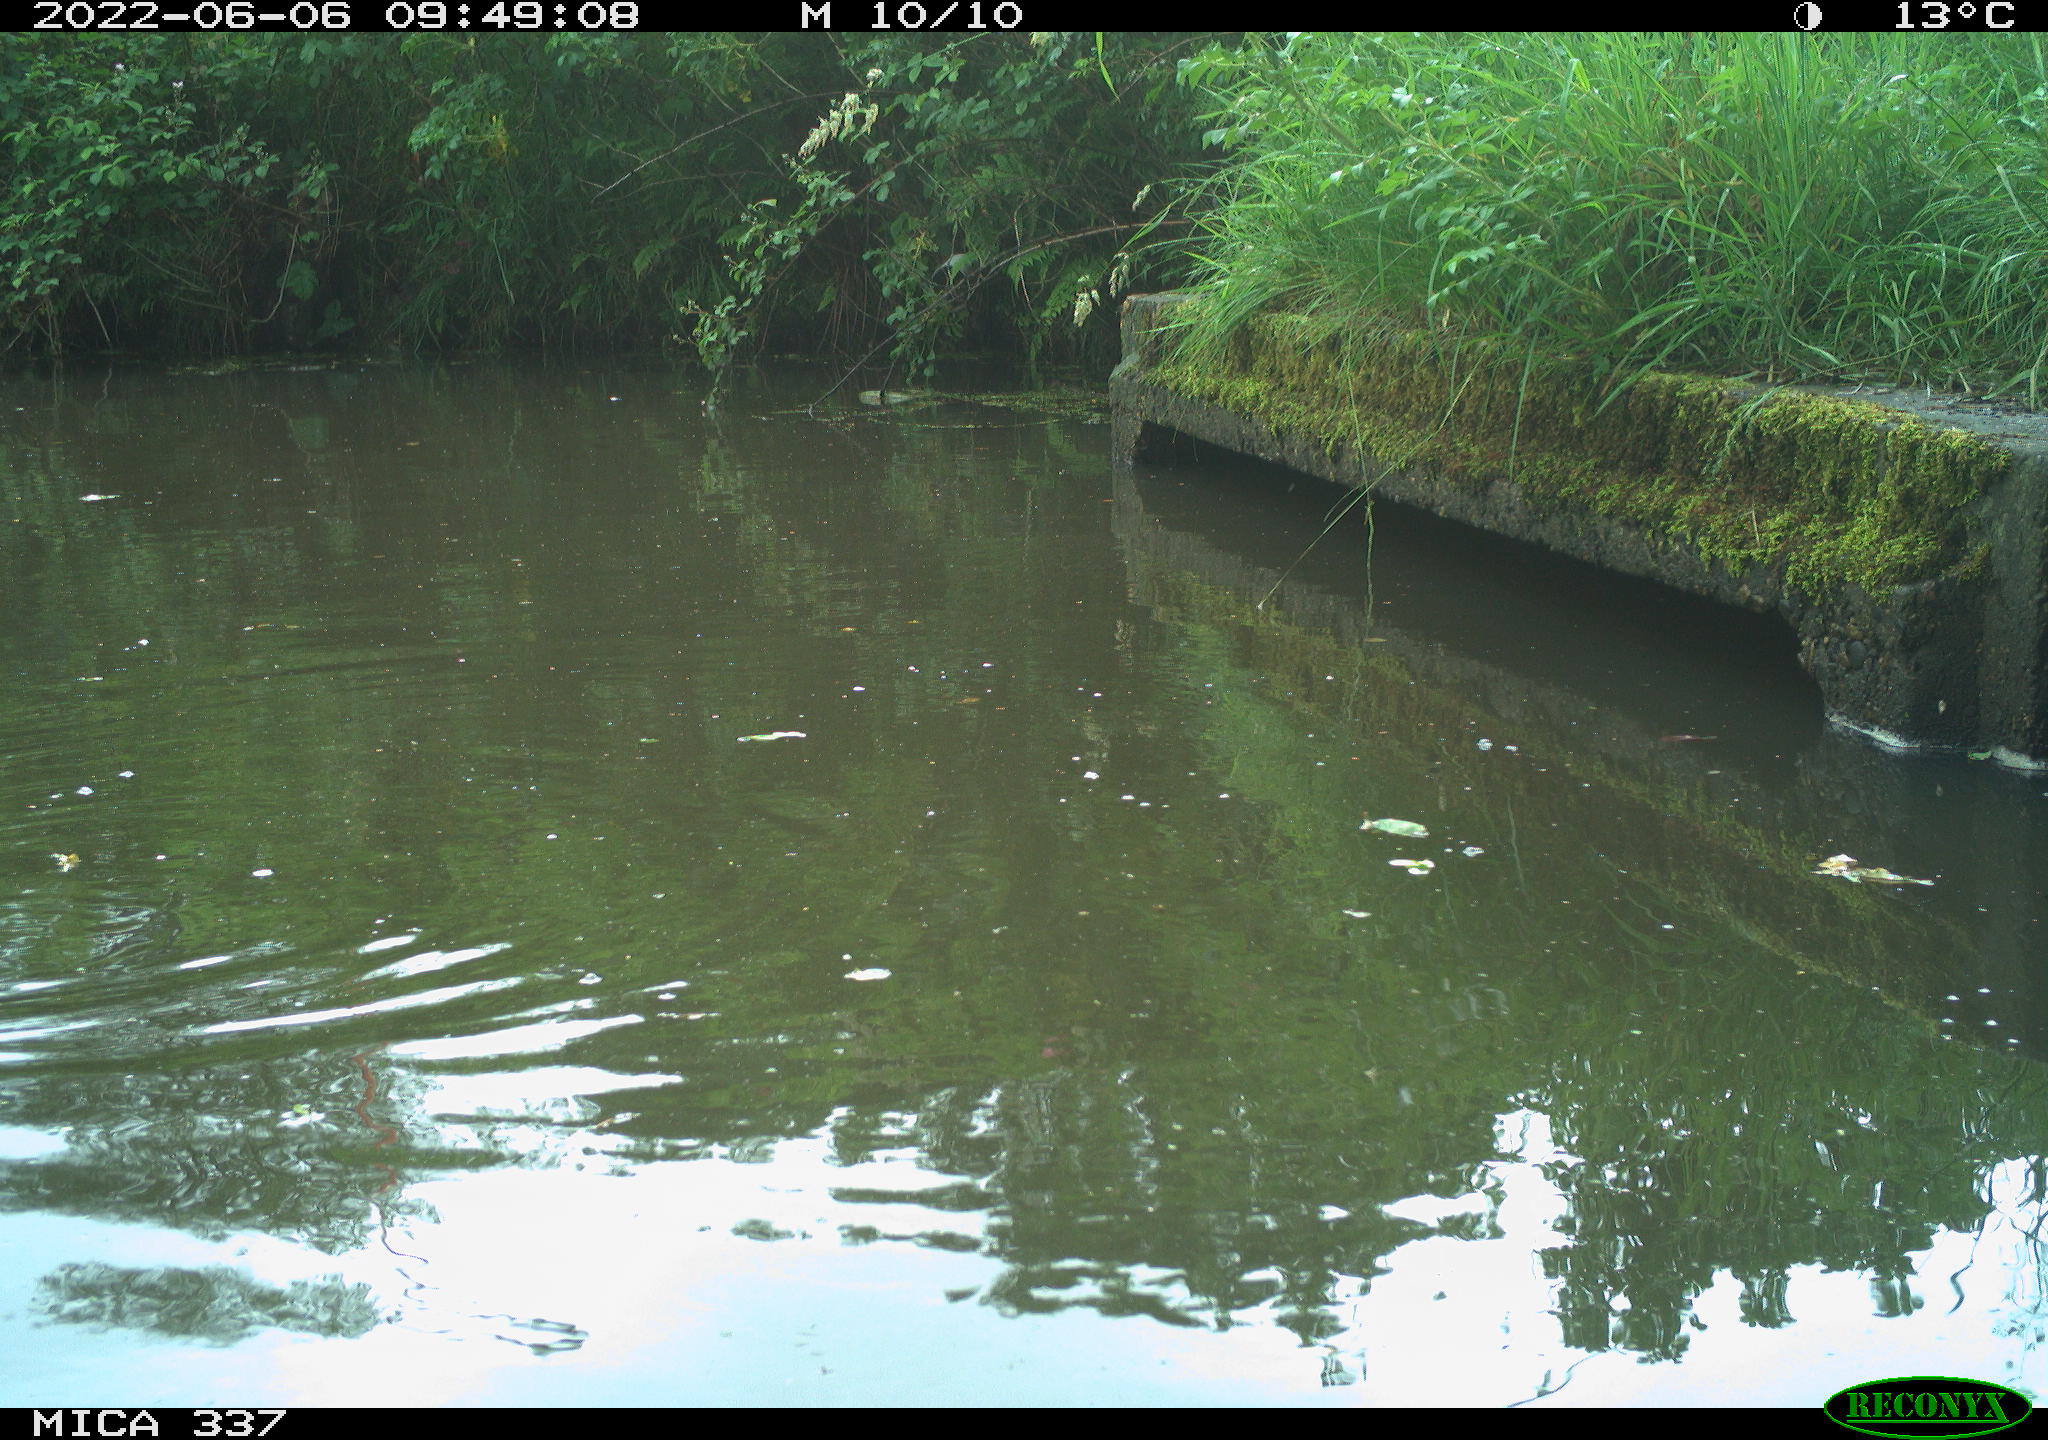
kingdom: Animalia
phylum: Chordata
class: Aves
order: Gruiformes
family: Rallidae
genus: Gallinula
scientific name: Gallinula chloropus
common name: Common moorhen
